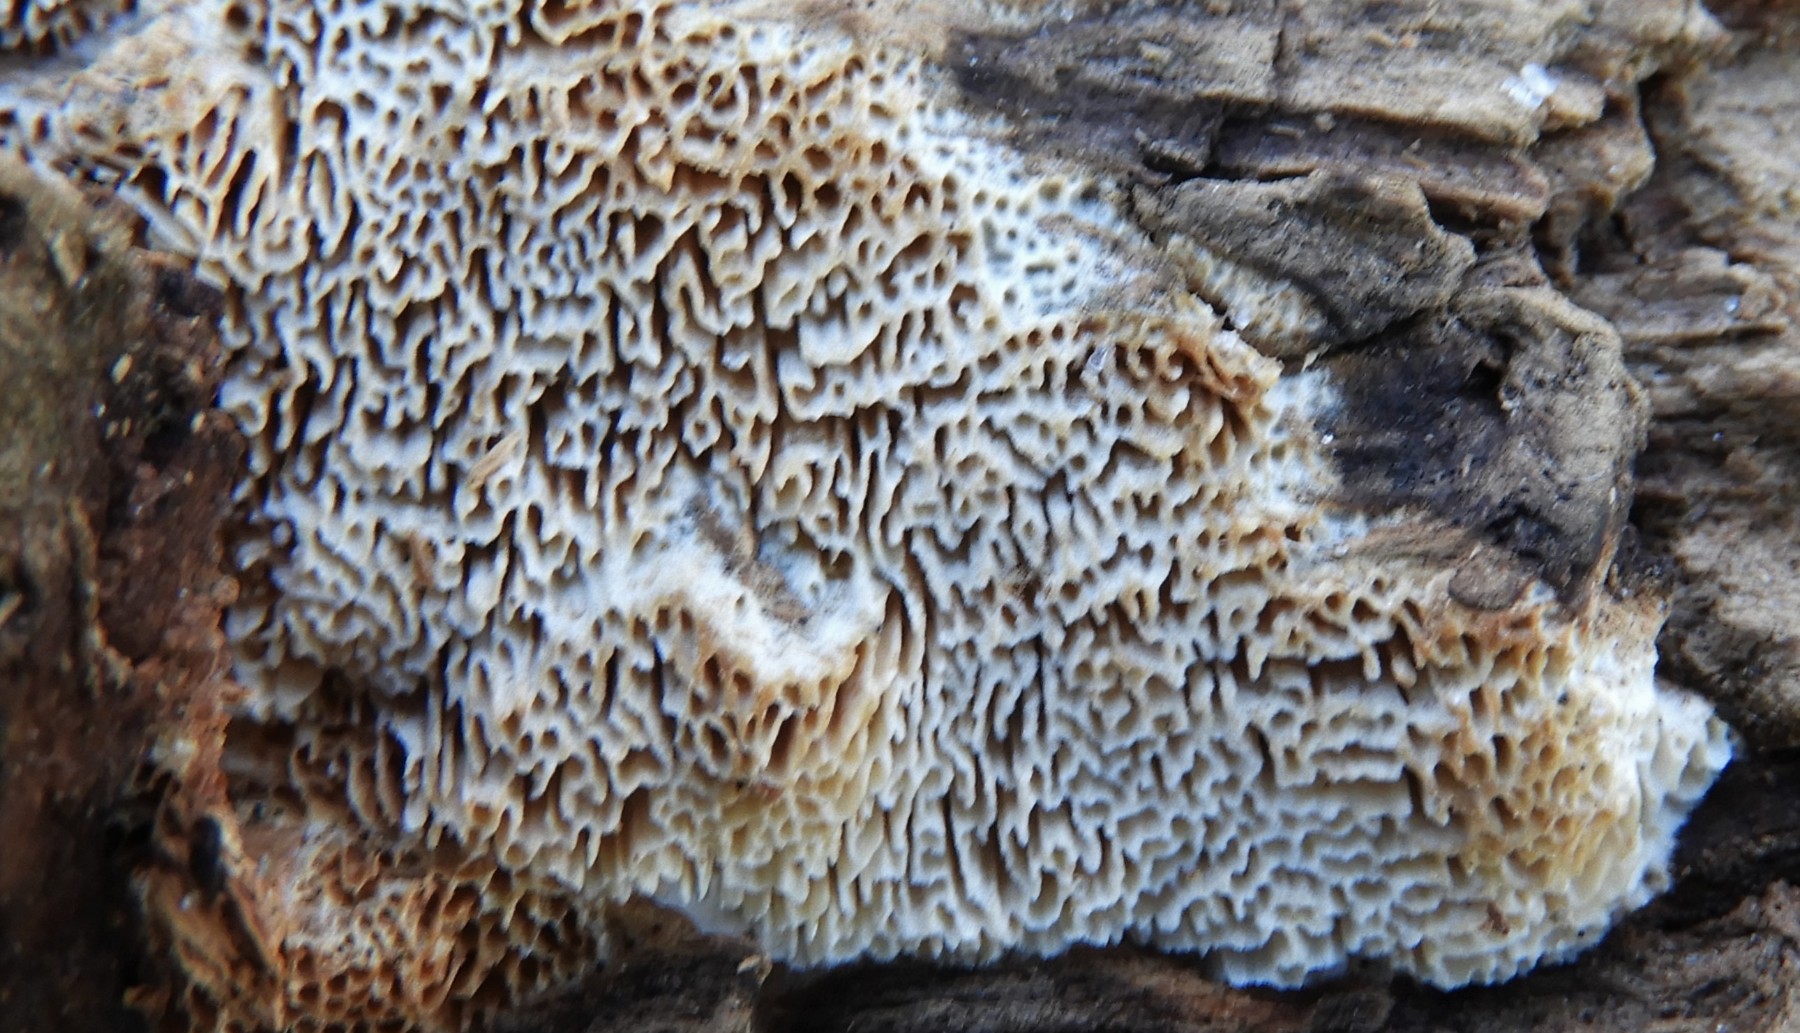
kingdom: Fungi
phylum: Basidiomycota
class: Agaricomycetes
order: Hymenochaetales
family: Schizoporaceae
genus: Xylodon
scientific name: Xylodon subtropicus
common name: labyrint-tandsvamp
